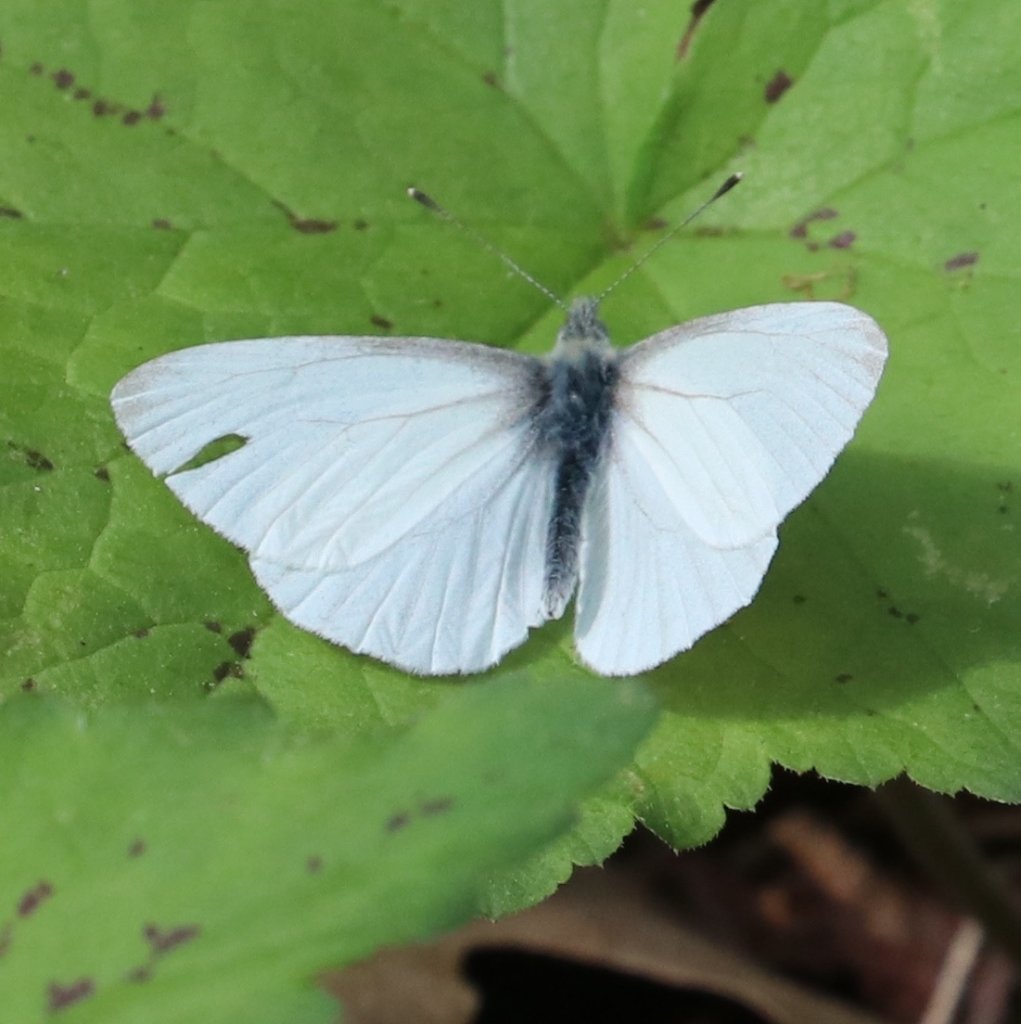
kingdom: Animalia
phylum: Arthropoda
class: Insecta
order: Lepidoptera
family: Pieridae
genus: Pieris
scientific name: Pieris virginiensis
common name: West Virginia White
